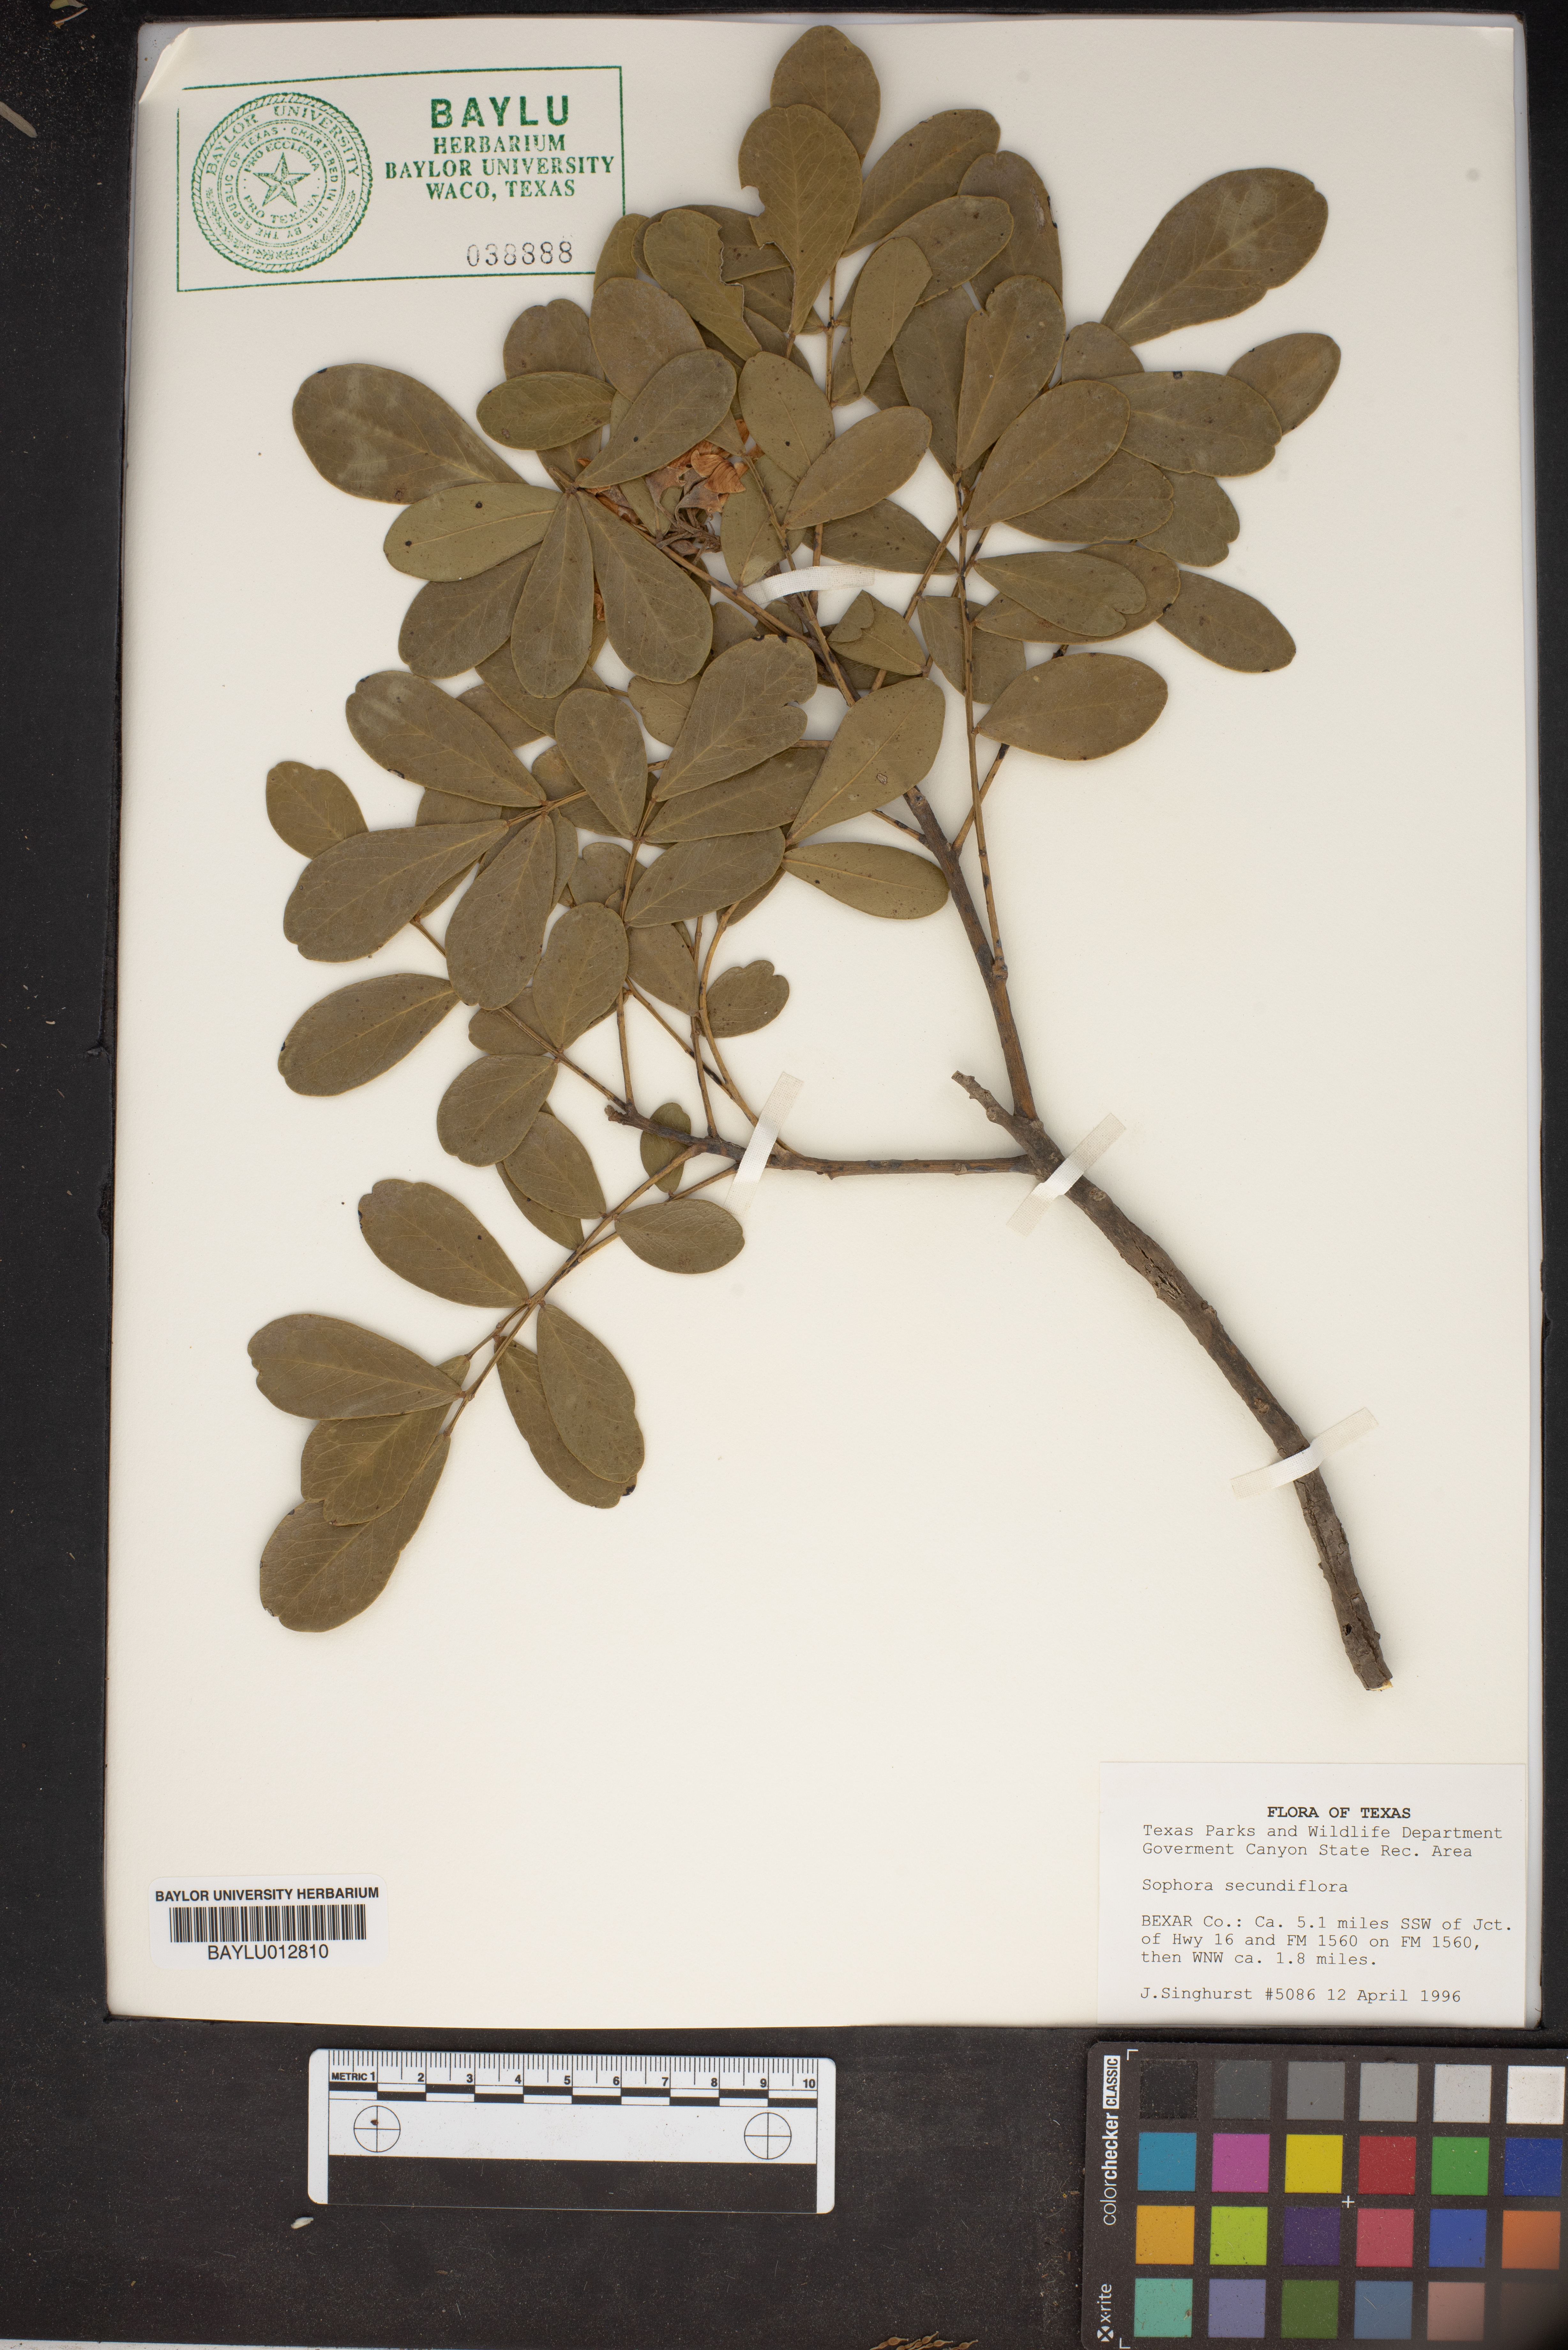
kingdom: Plantae
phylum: Tracheophyta
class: Magnoliopsida
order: Fabales
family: Fabaceae
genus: Dermatophyllum
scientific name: Dermatophyllum secundiflorum
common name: Texas-mountain-laurel
